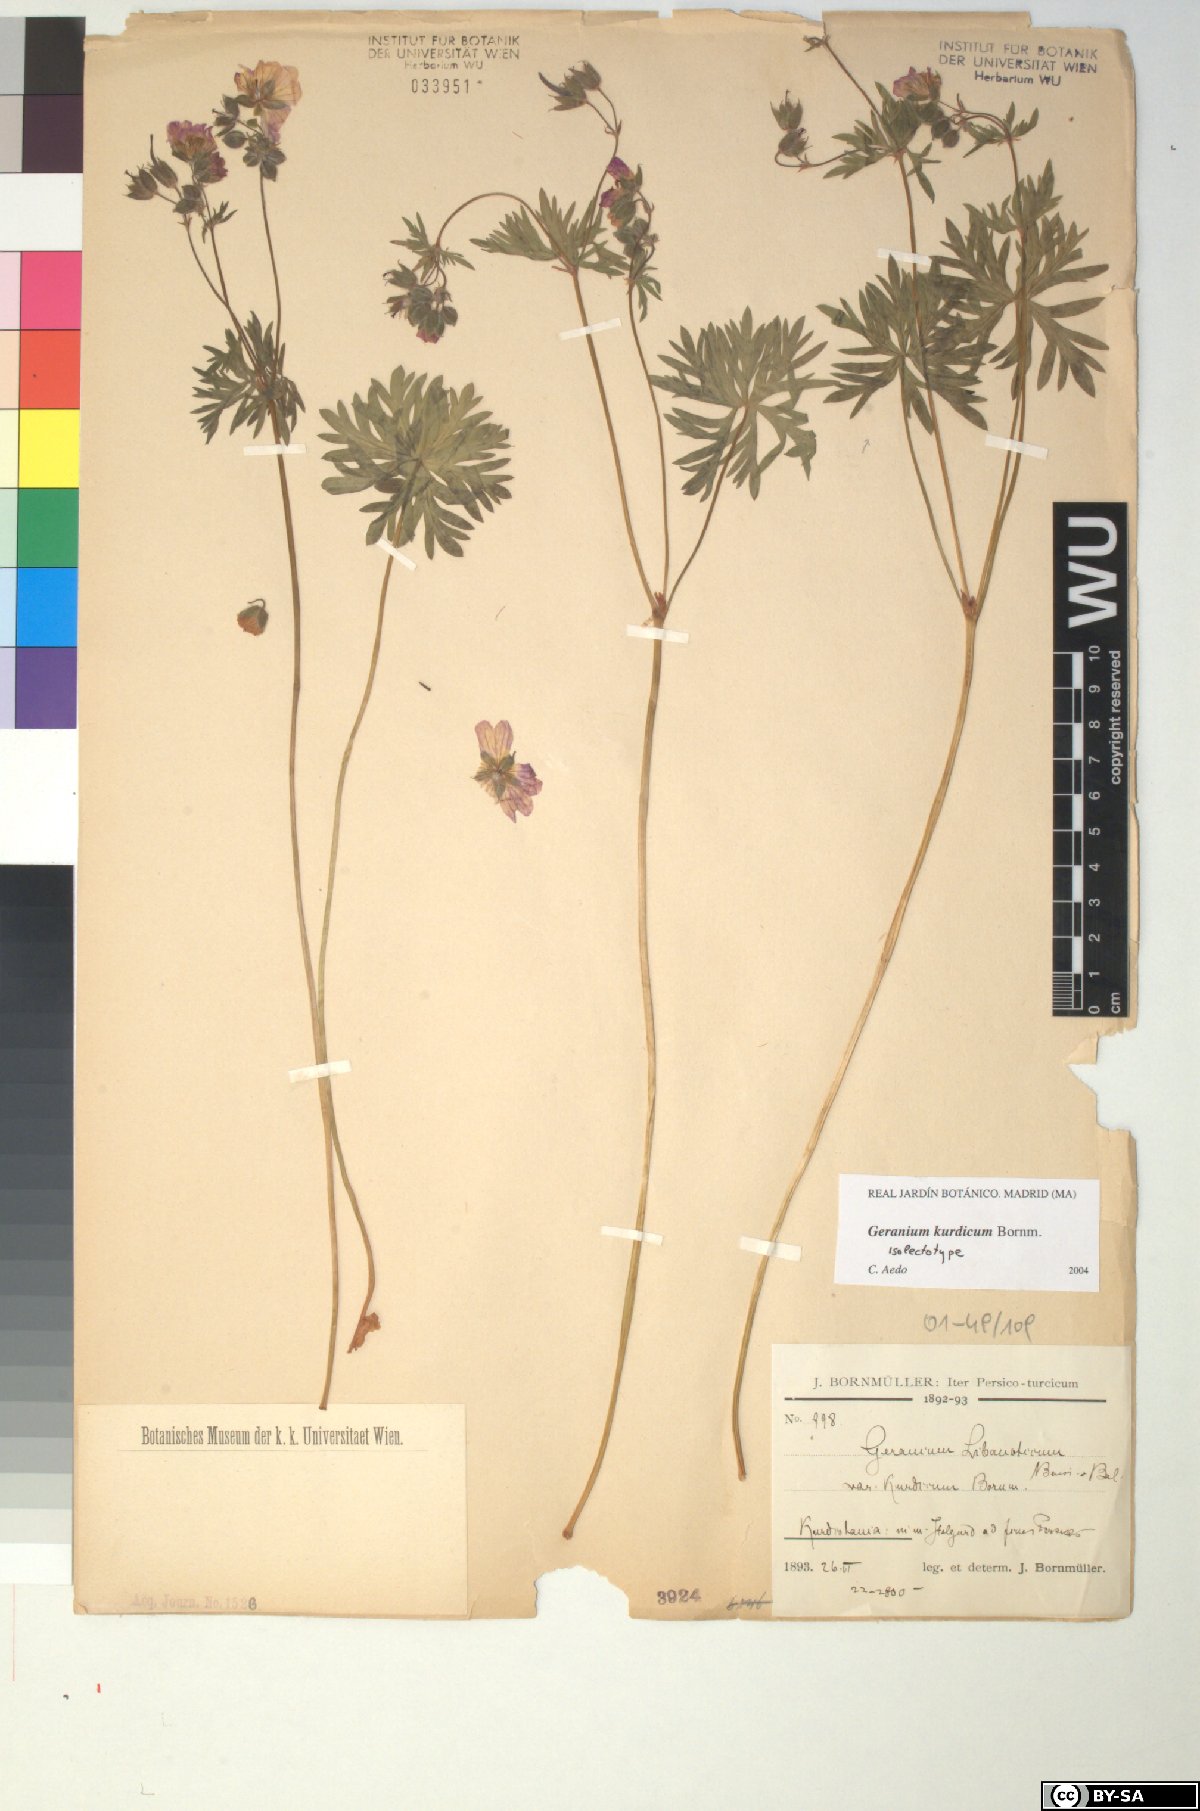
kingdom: Plantae
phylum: Tracheophyta
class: Magnoliopsida
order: Geraniales
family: Geraniaceae
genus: Geranium
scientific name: Geranium kurdicum
